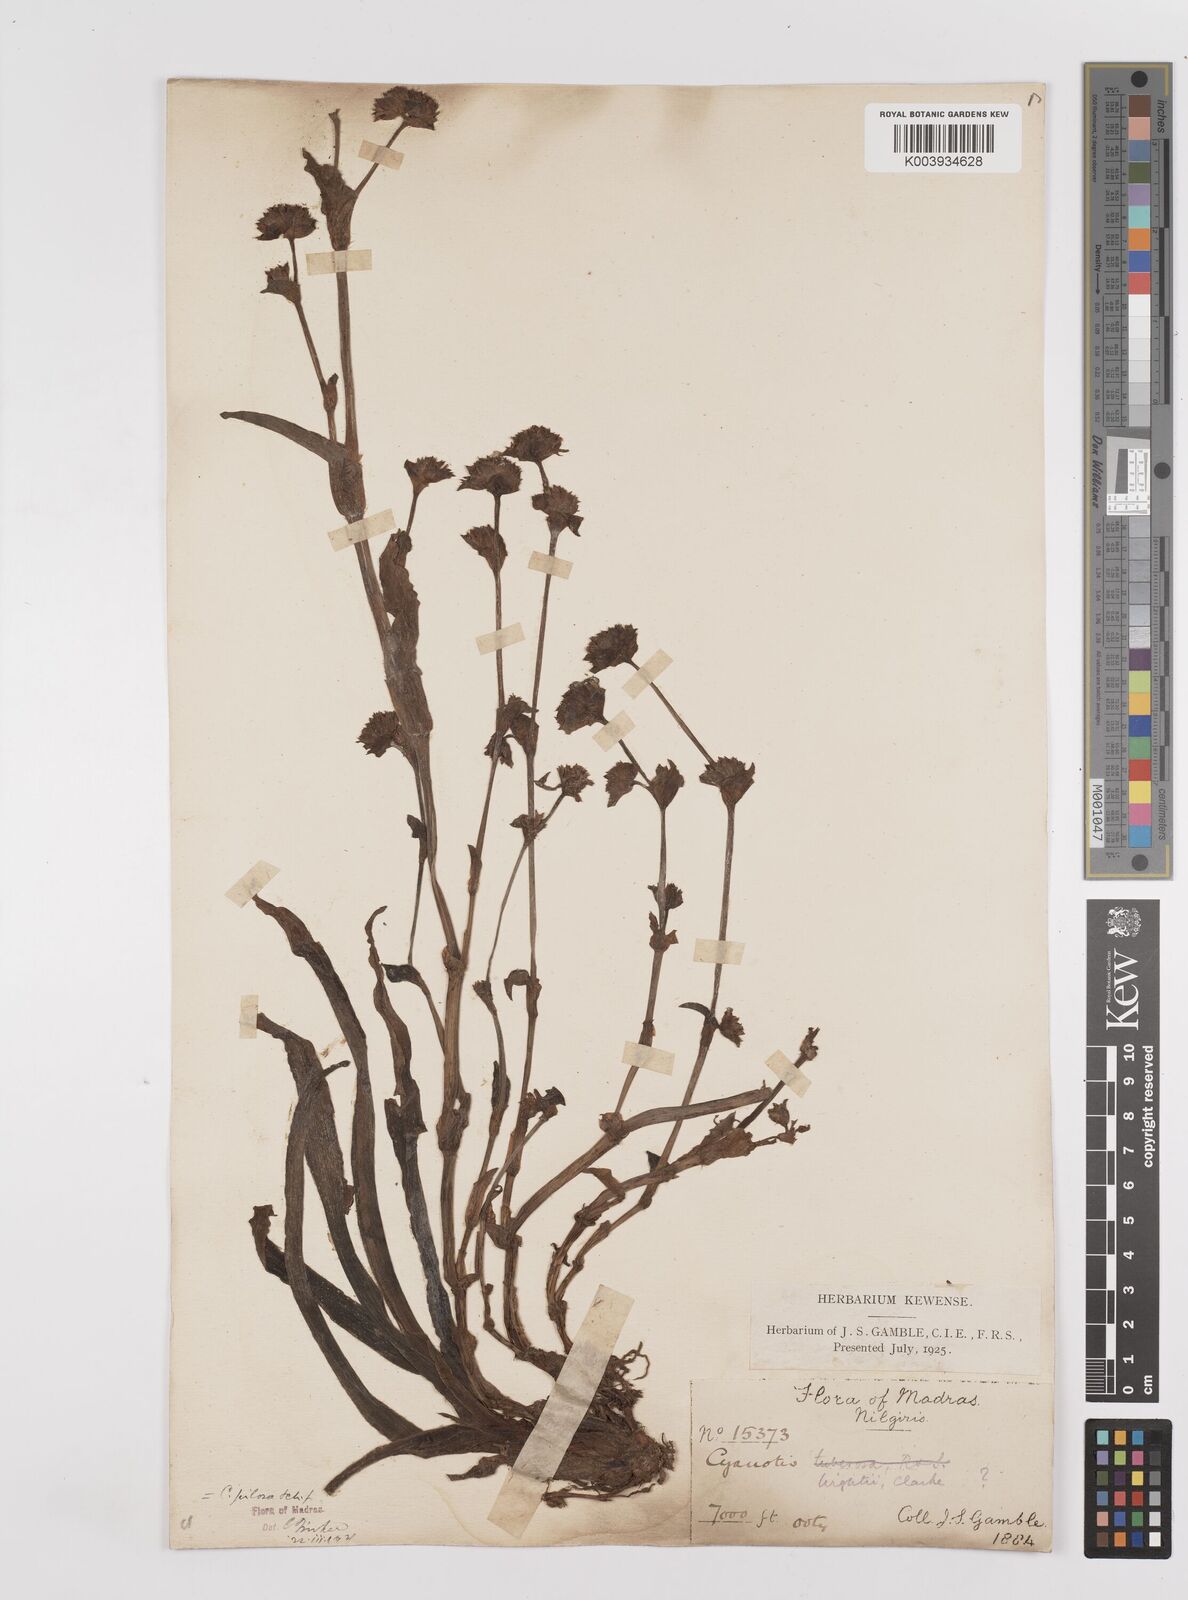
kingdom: Plantae
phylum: Tracheophyta
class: Liliopsida
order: Commelinales
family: Commelinaceae
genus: Cyanotis
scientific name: Cyanotis pilosa
